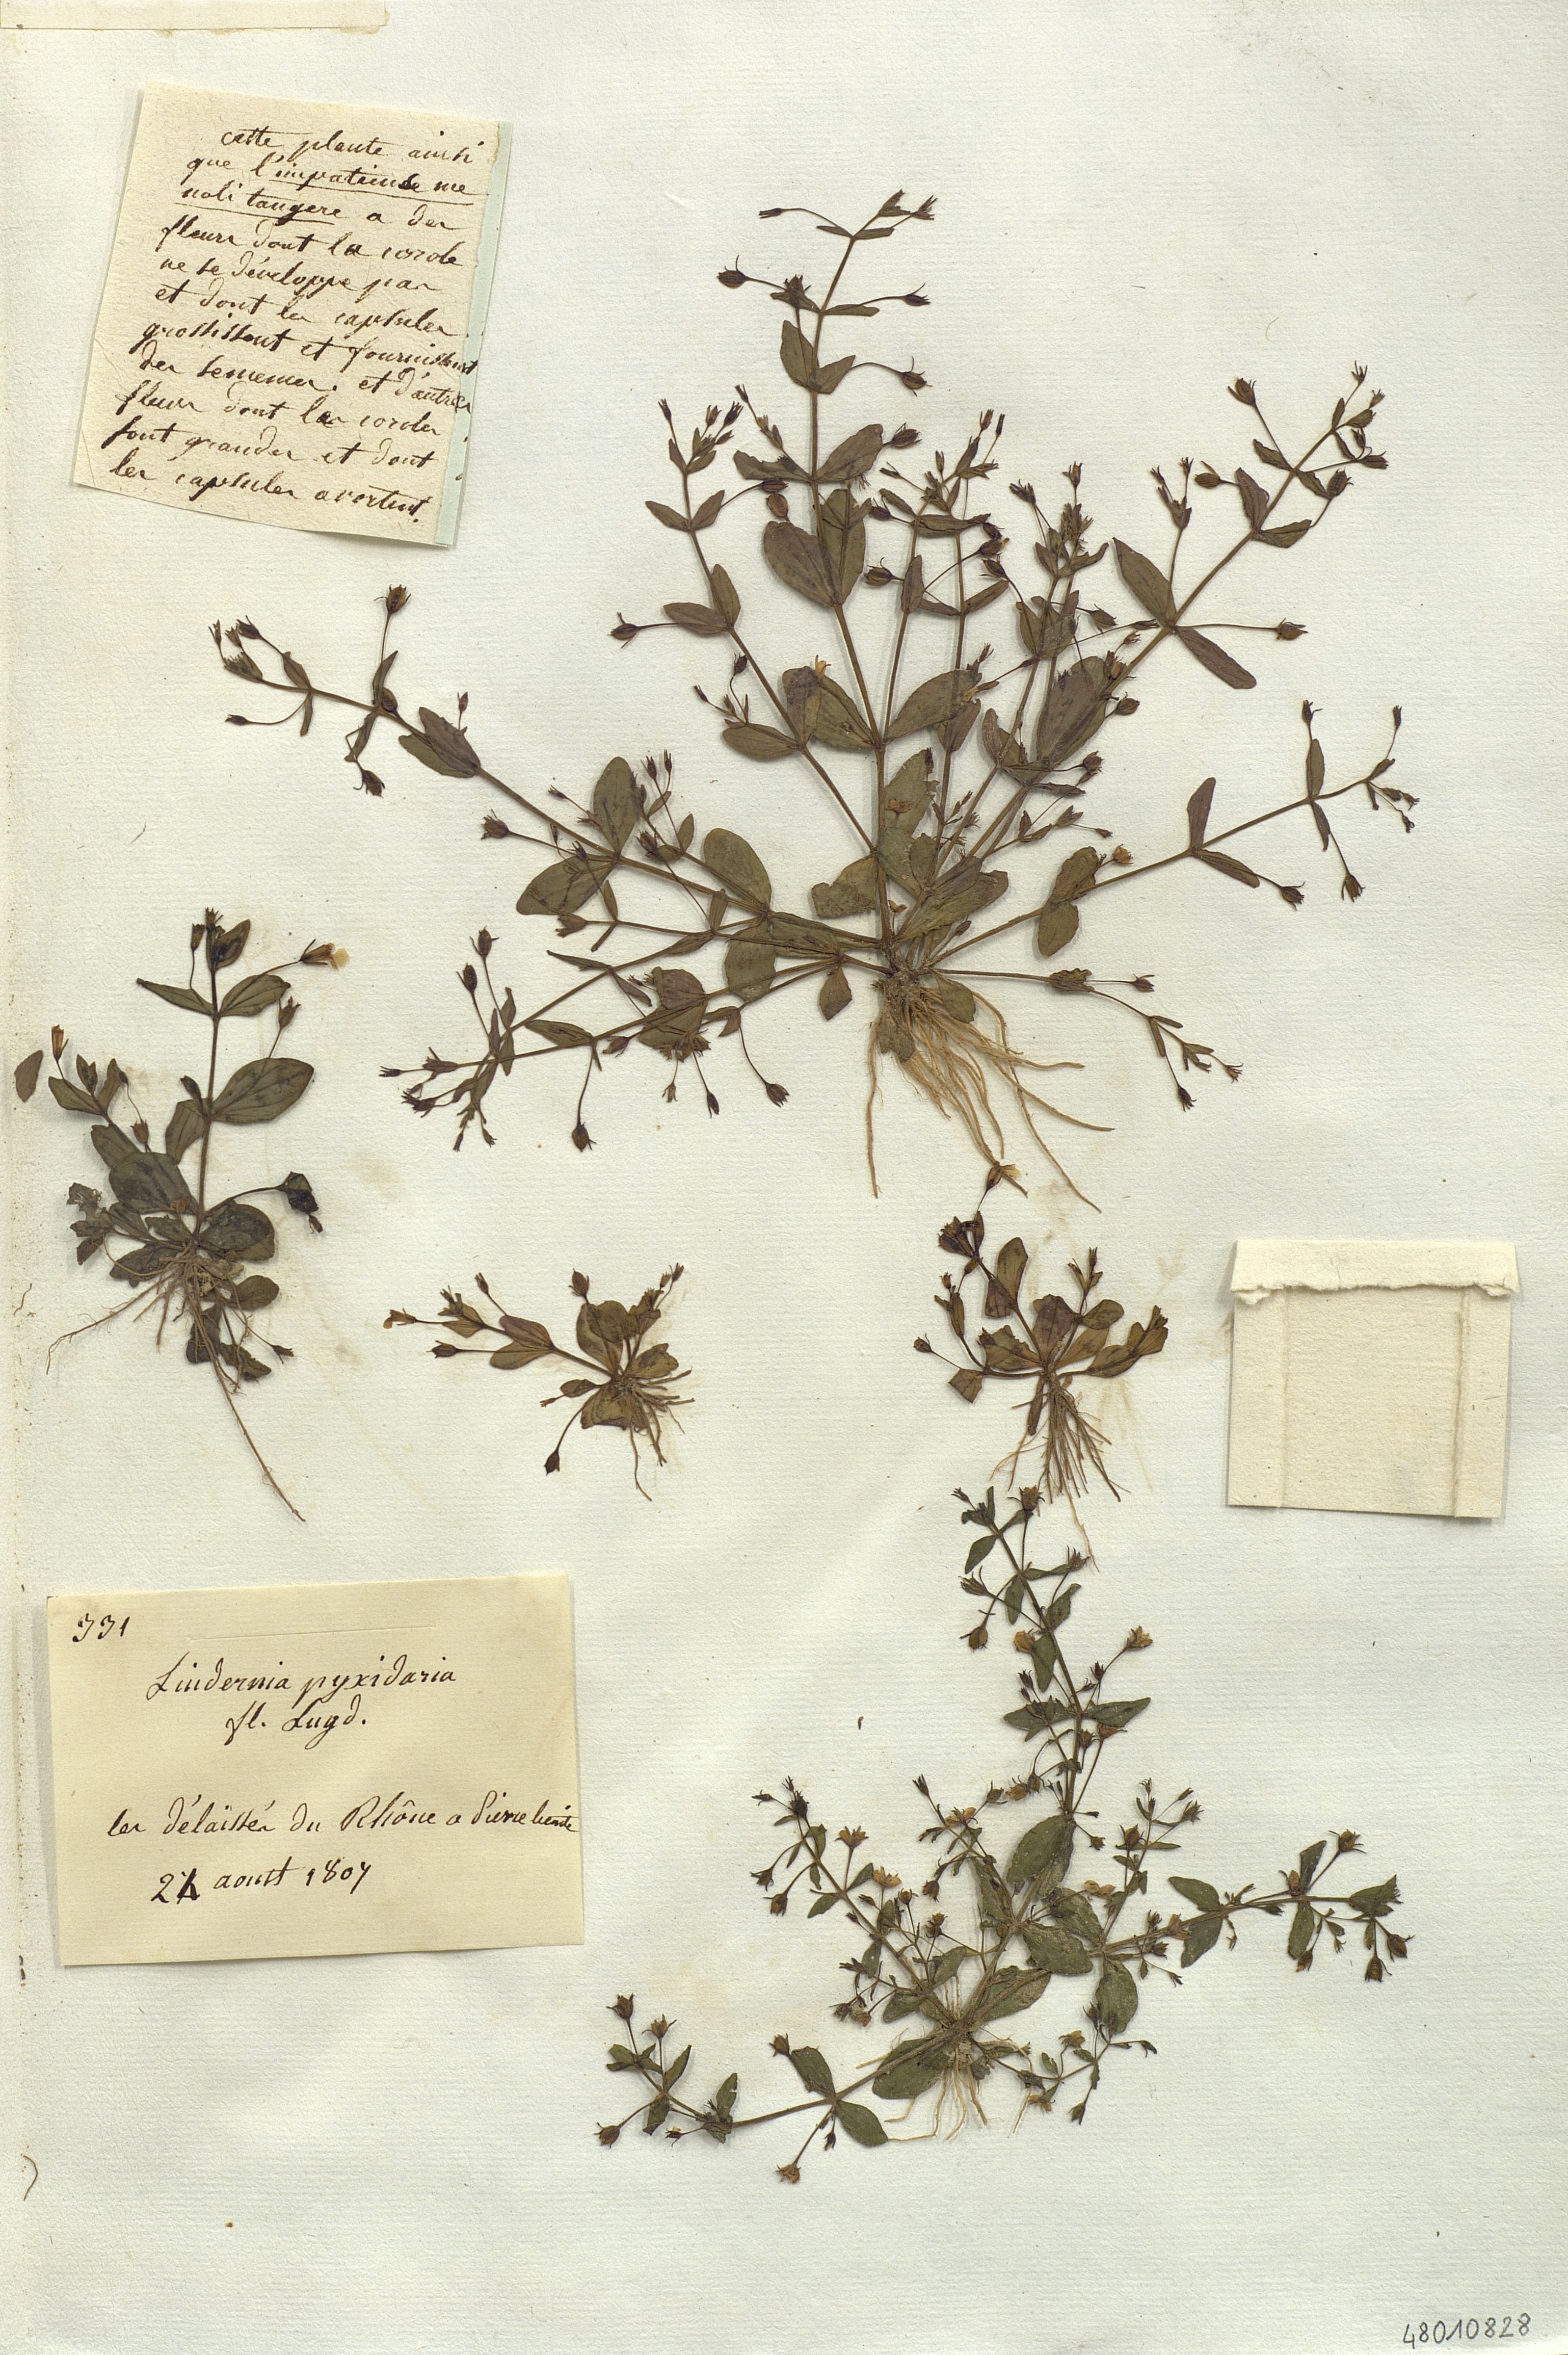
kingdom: Plantae
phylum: Tracheophyta
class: Magnoliopsida
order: Lamiales
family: Linderniaceae
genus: Lindernia
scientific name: Lindernia
